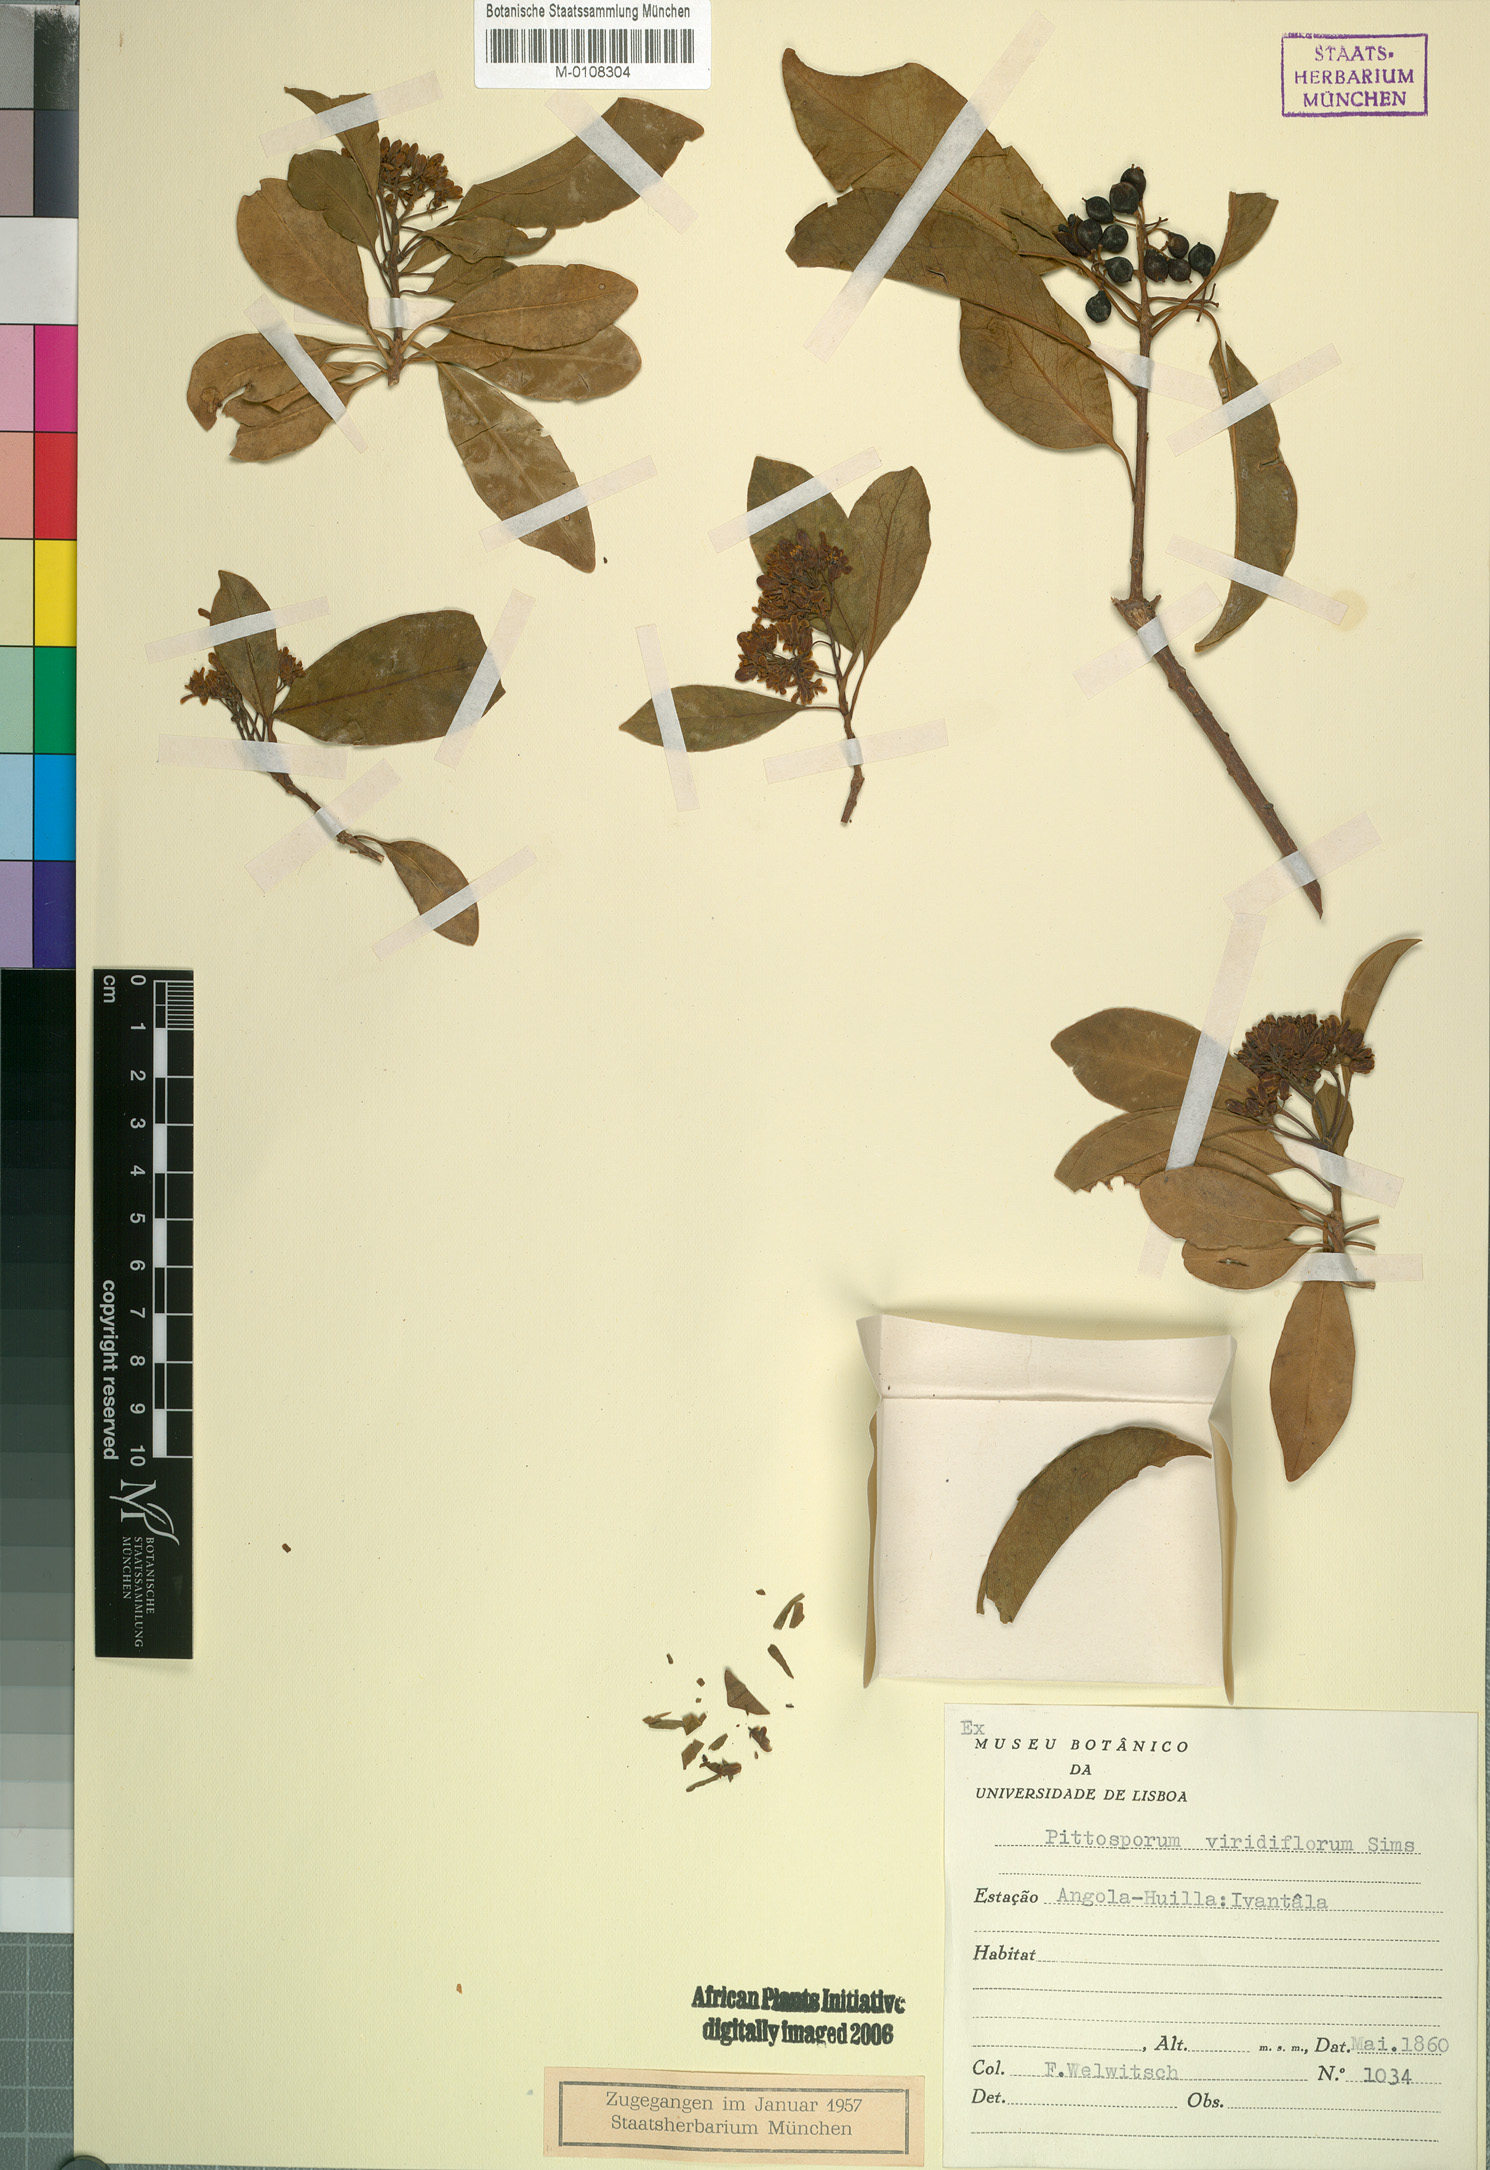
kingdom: Plantae
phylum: Tracheophyta
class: Magnoliopsida
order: Apiales
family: Pittosporaceae
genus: Pittosporum
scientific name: Pittosporum viridiflorum
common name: Cape cheesewood
